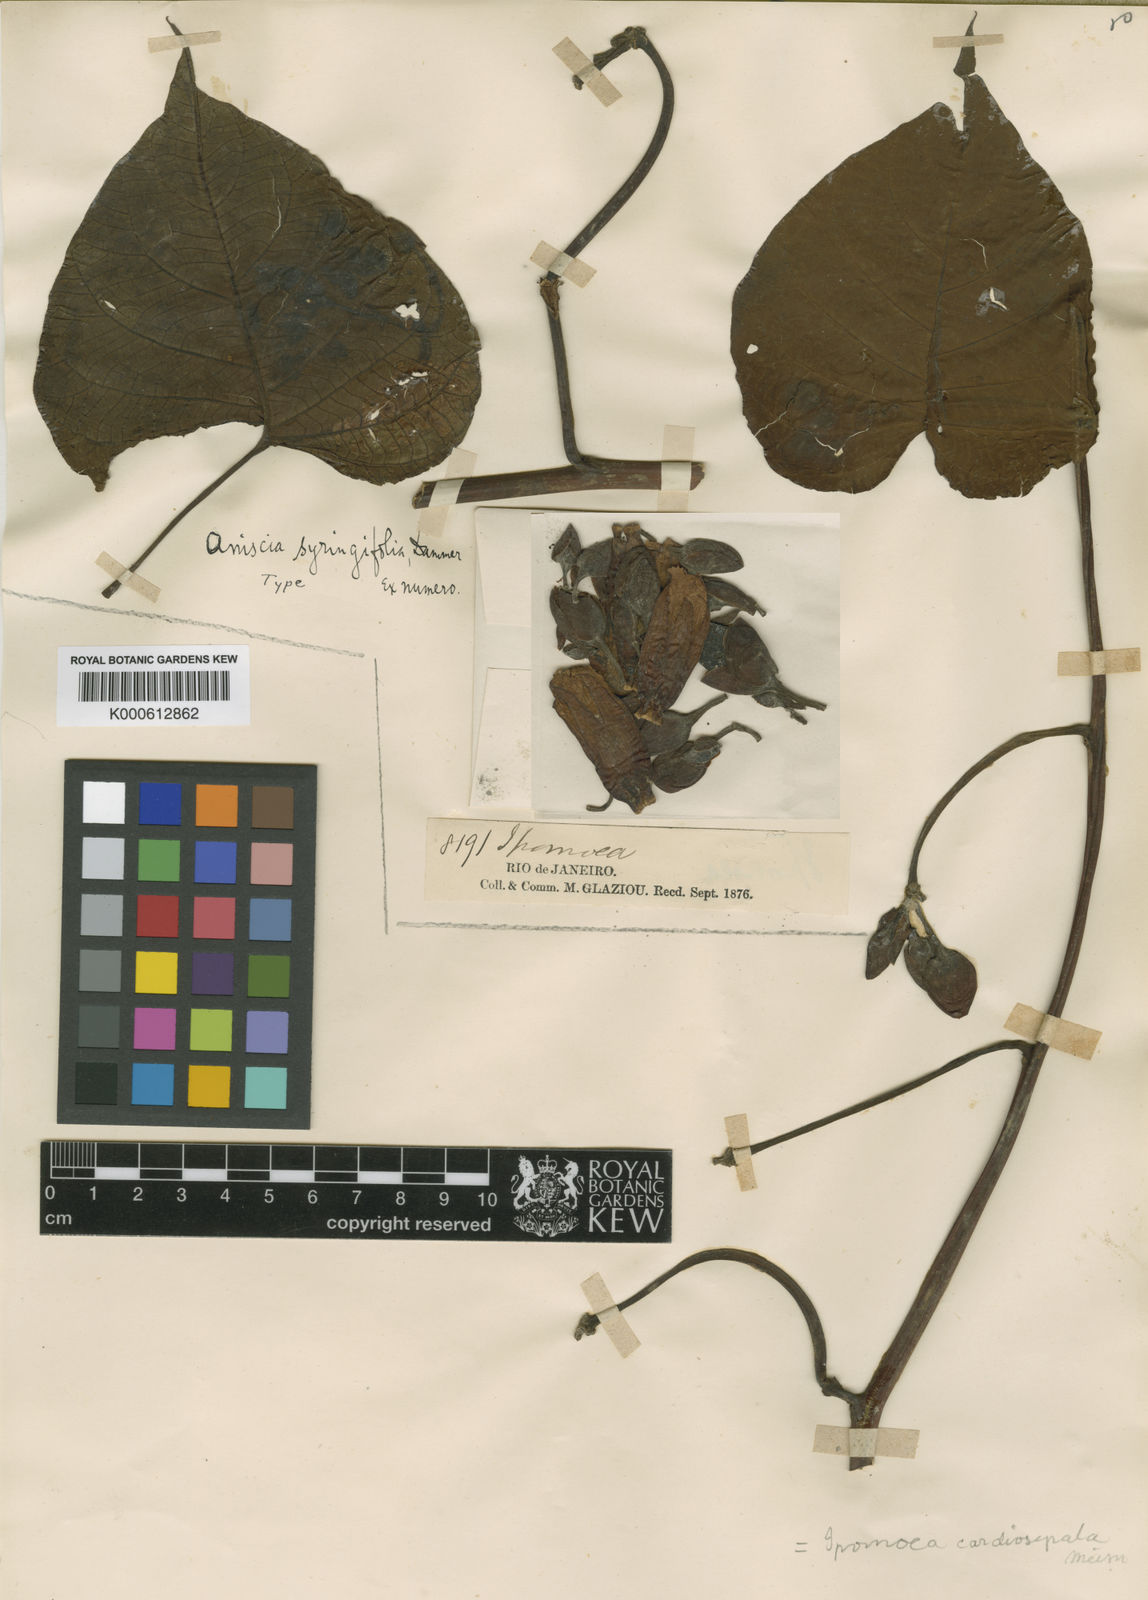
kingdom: Plantae
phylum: Tracheophyta
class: Magnoliopsida
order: Solanales
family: Convolvulaceae
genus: Ipomoea
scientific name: Ipomoea philomega
